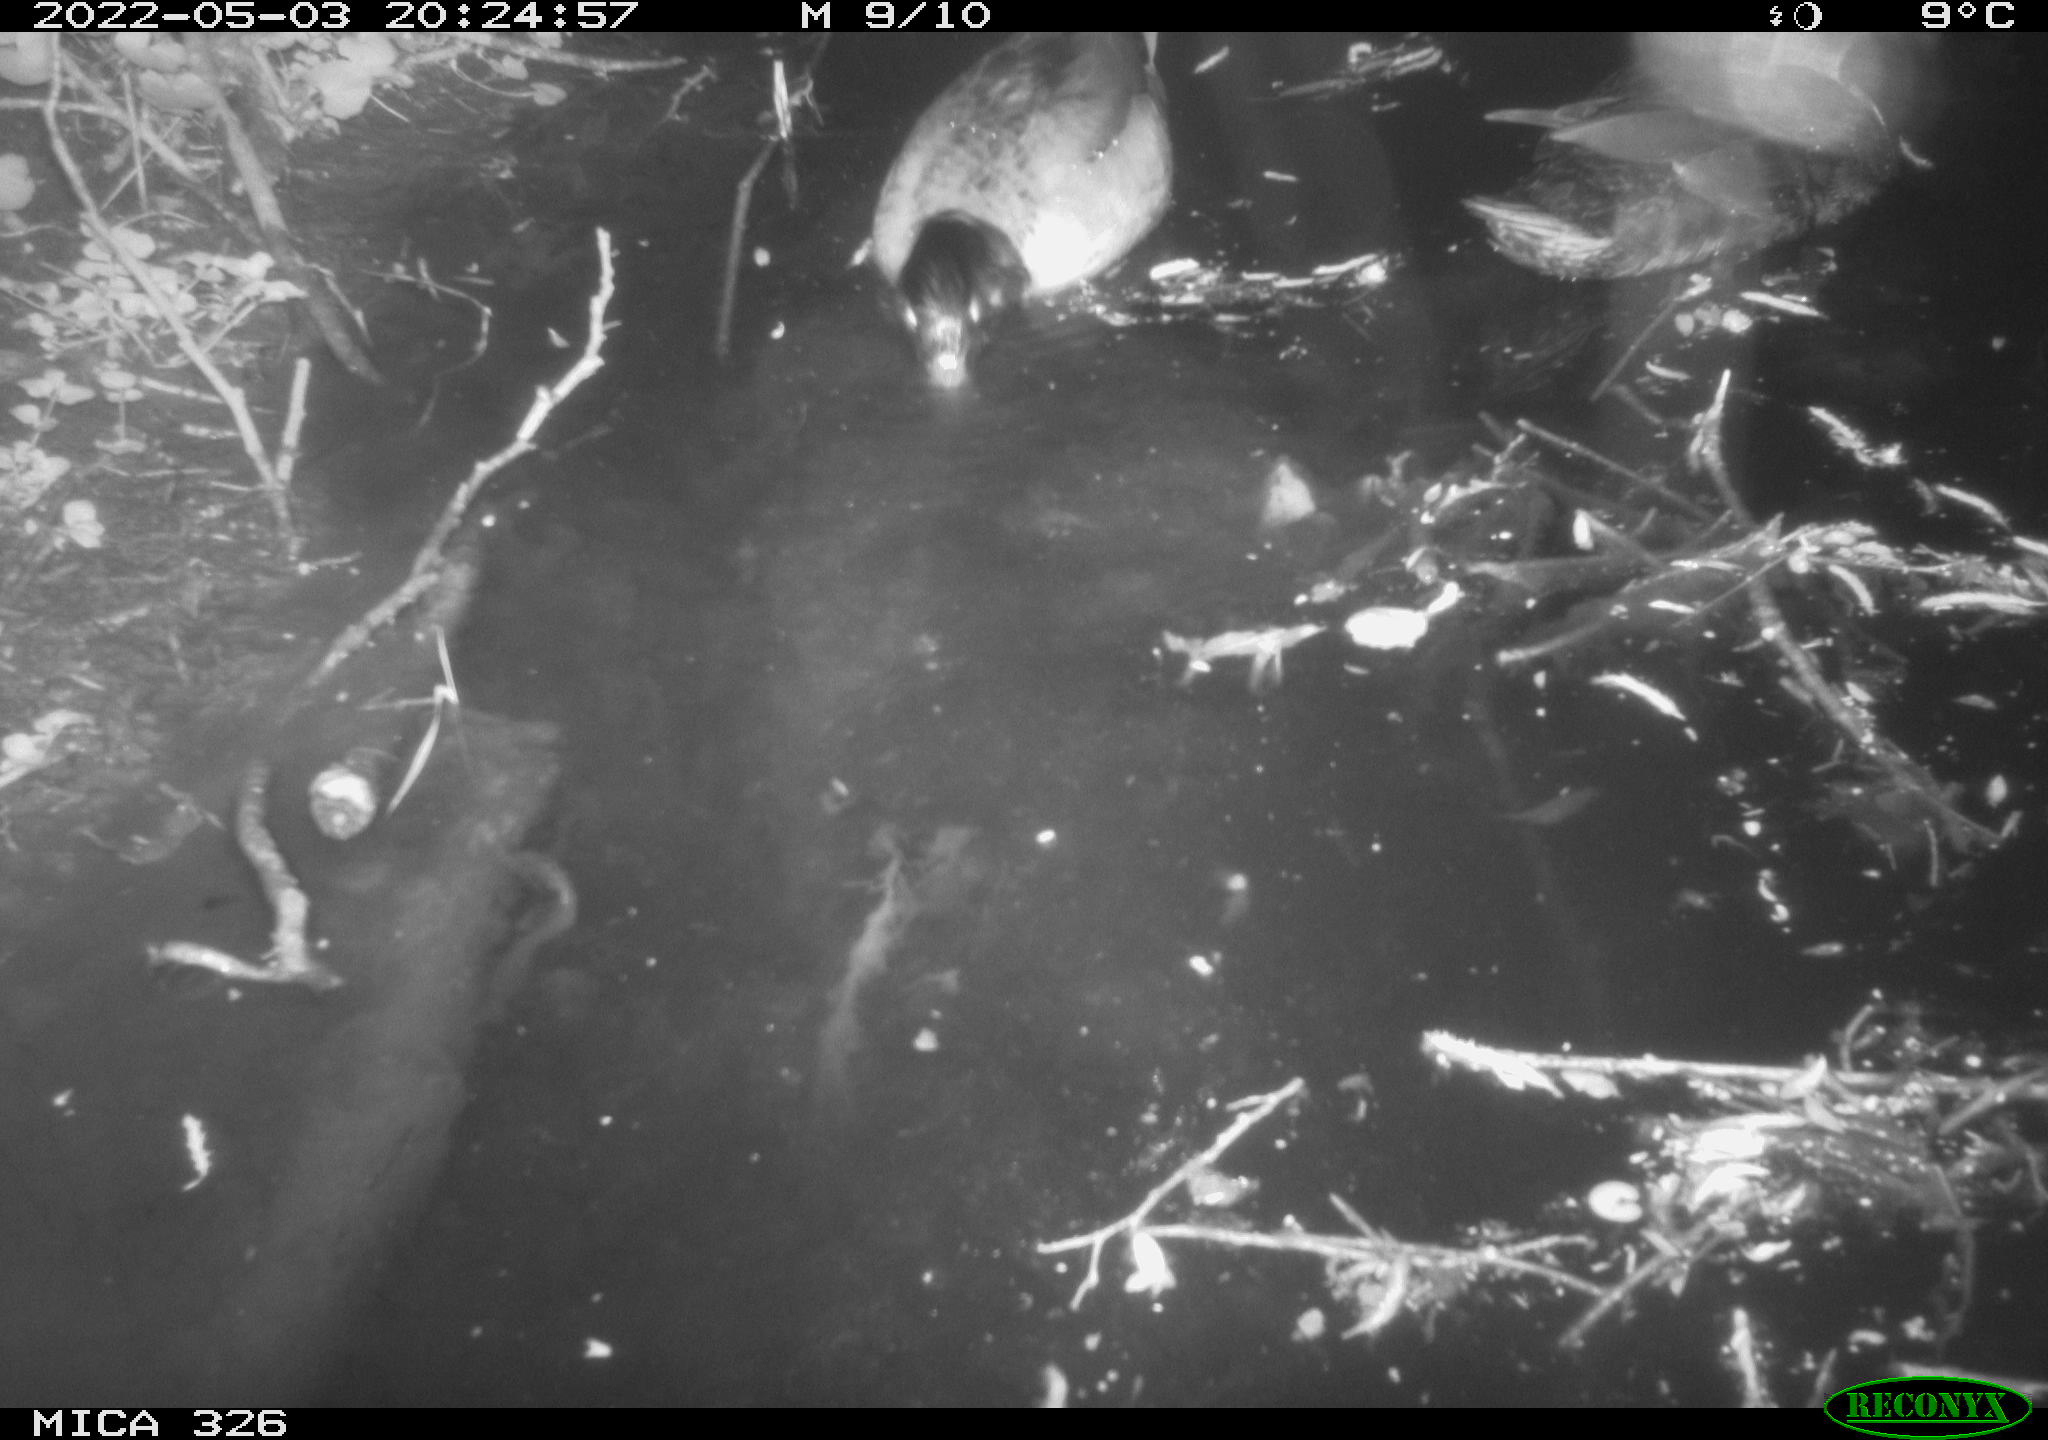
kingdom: Animalia
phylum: Chordata
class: Aves
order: Anseriformes
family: Anatidae
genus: Anas
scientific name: Anas platyrhynchos
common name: Mallard
